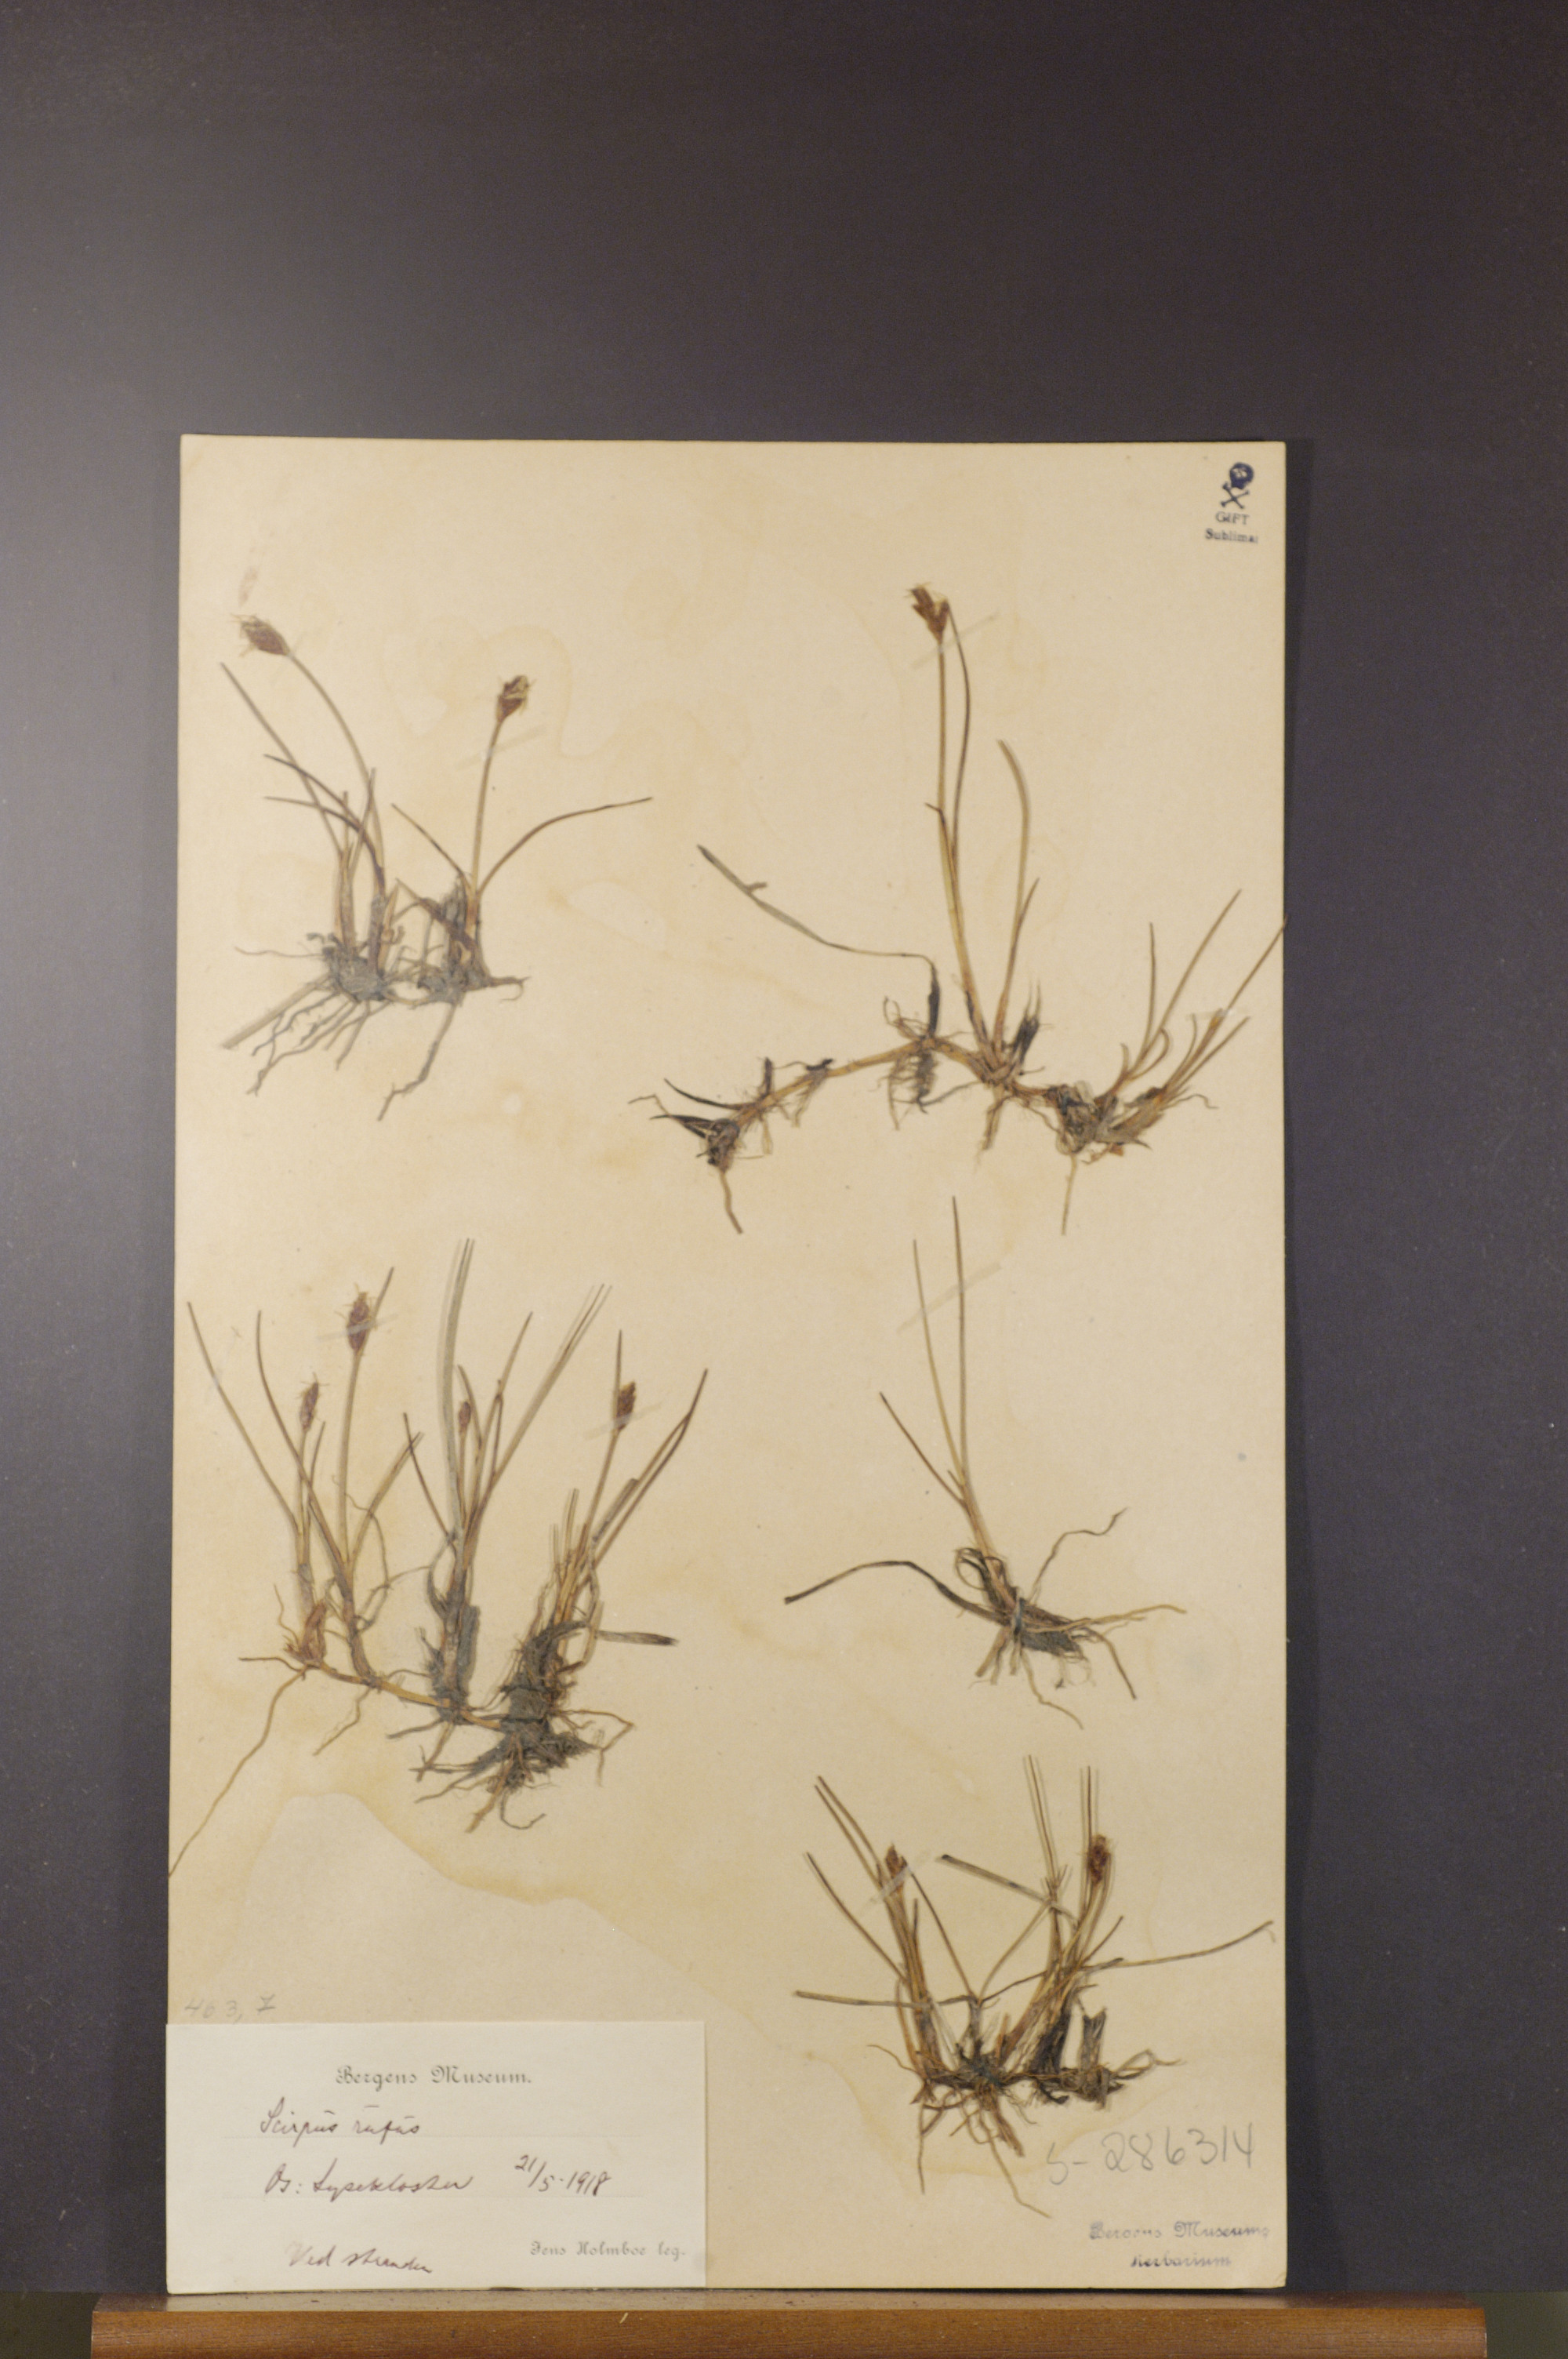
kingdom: Plantae
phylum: Tracheophyta
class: Liliopsida
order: Poales
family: Cyperaceae
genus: Blysmus
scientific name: Blysmus rufus
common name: Saltmarsh flat-sedge
